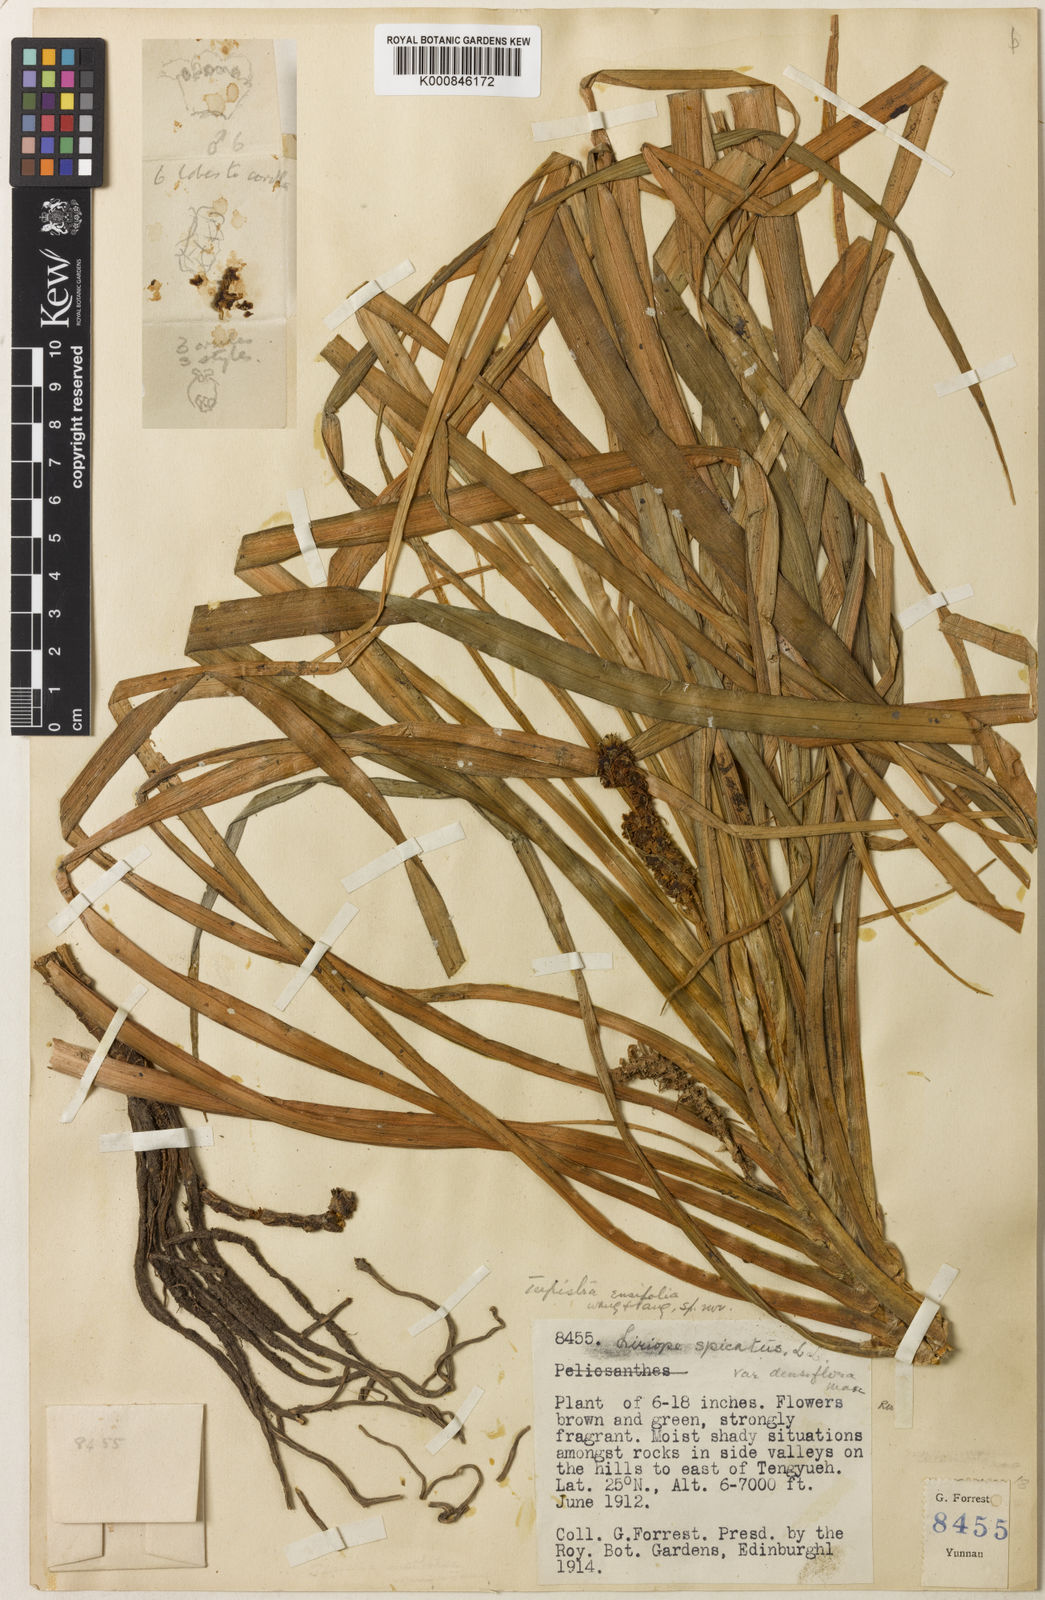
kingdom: Plantae
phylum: Tracheophyta
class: Liliopsida
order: Asparagales
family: Asparagaceae
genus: Tupistra
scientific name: Tupistra
